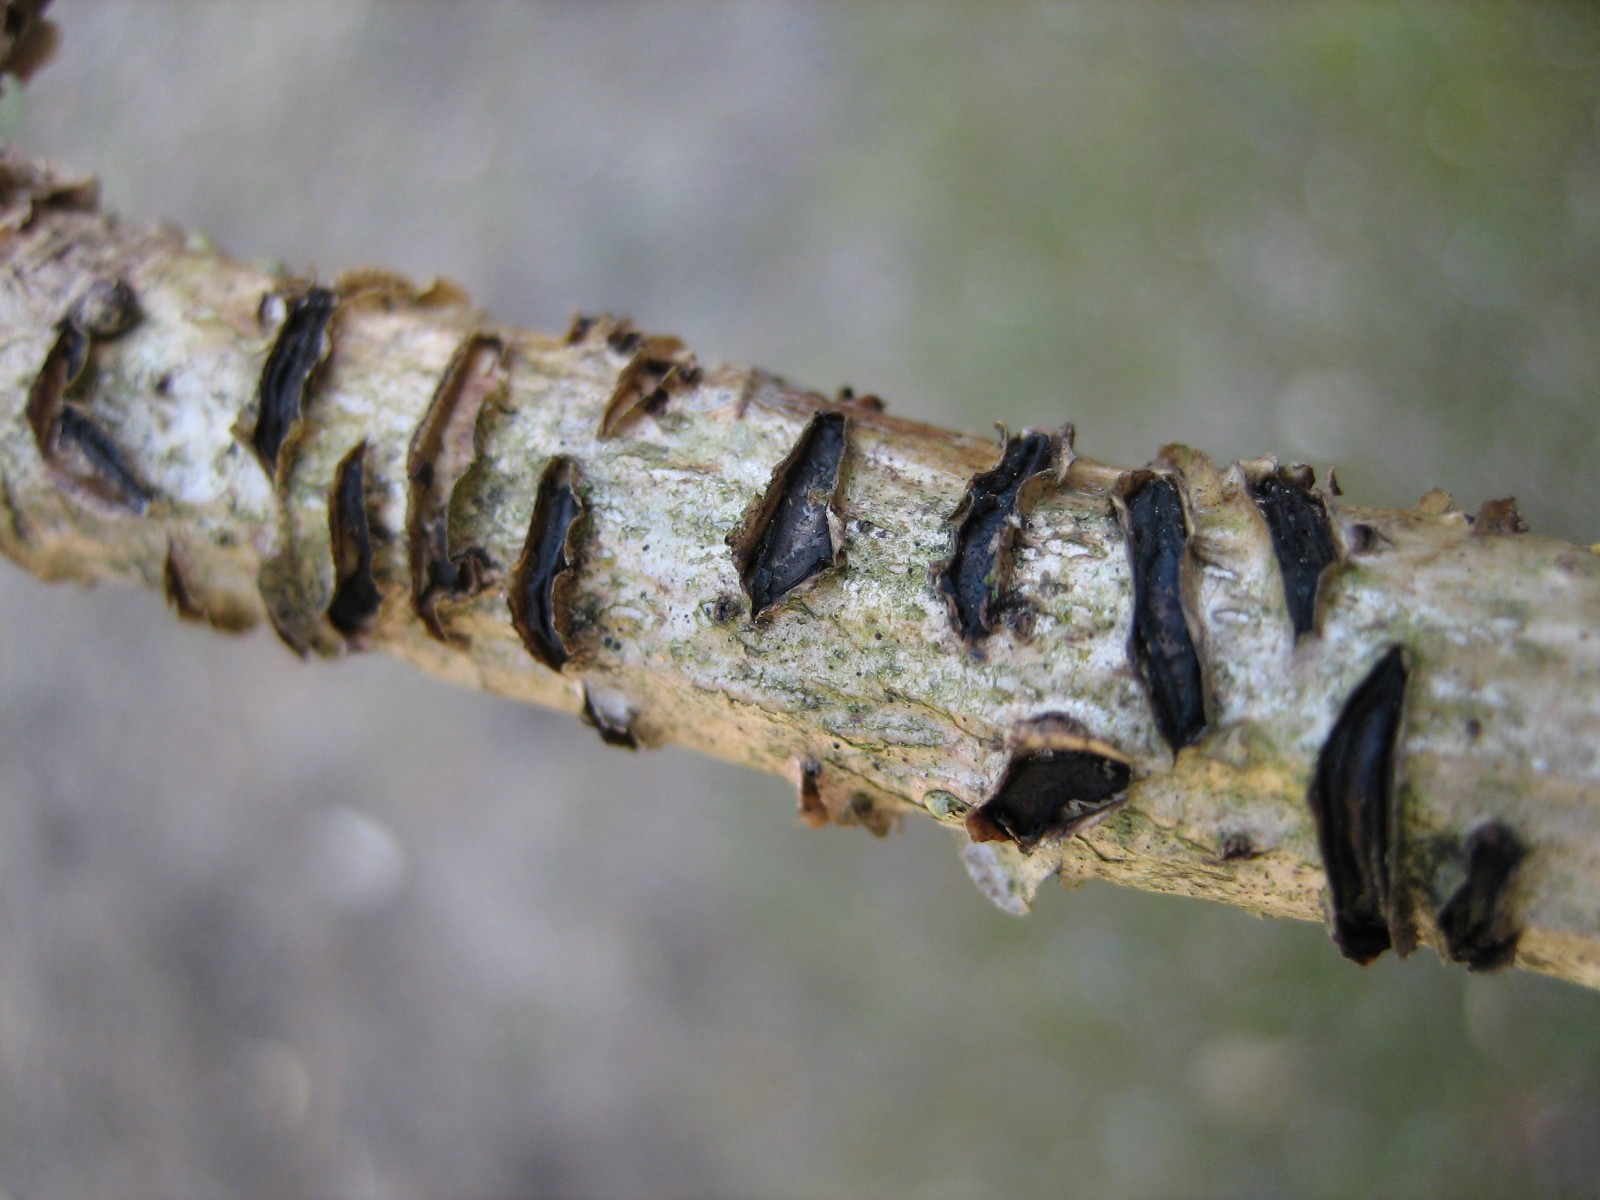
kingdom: Fungi
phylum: Ascomycota
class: Leotiomycetes
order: Rhytismatales
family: Rhytismataceae
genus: Colpoma
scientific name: Colpoma quercinum
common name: ege-sprækkeskive
